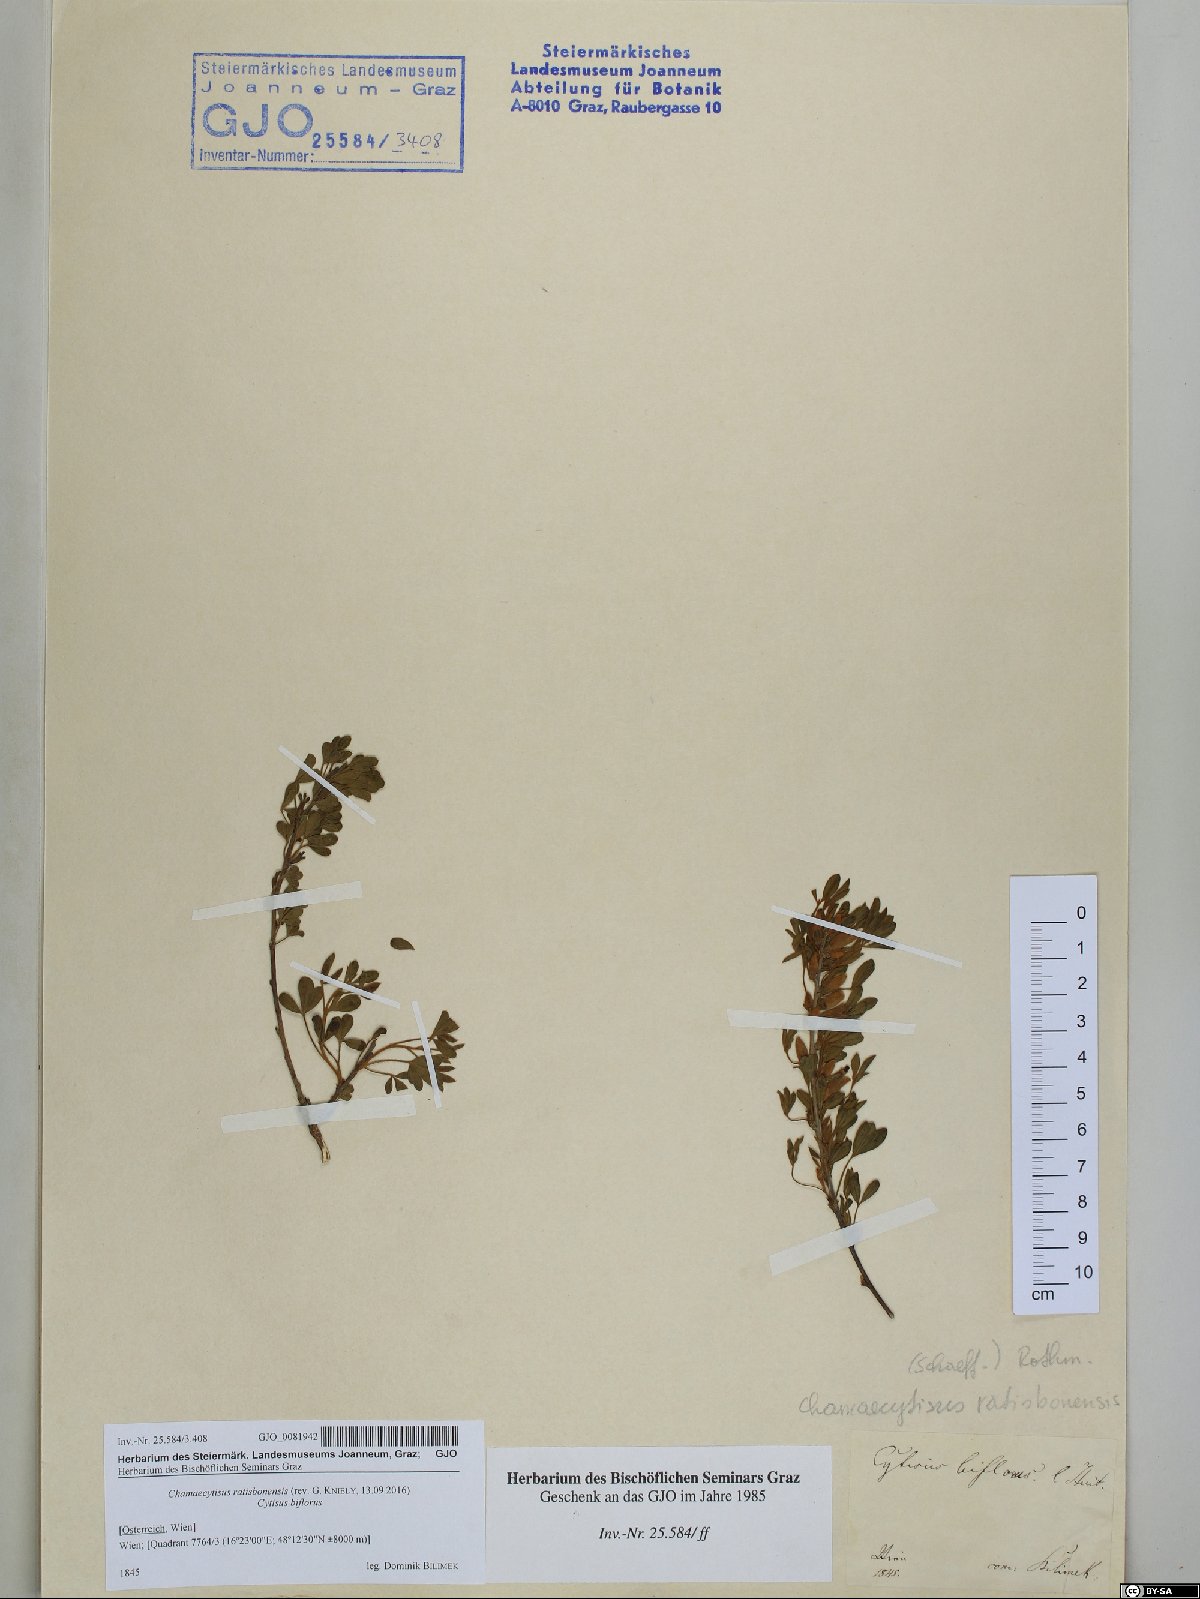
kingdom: Plantae
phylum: Tracheophyta
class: Magnoliopsida
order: Fabales
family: Fabaceae
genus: Chamaecytisus
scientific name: Chamaecytisus ratisbonensis
